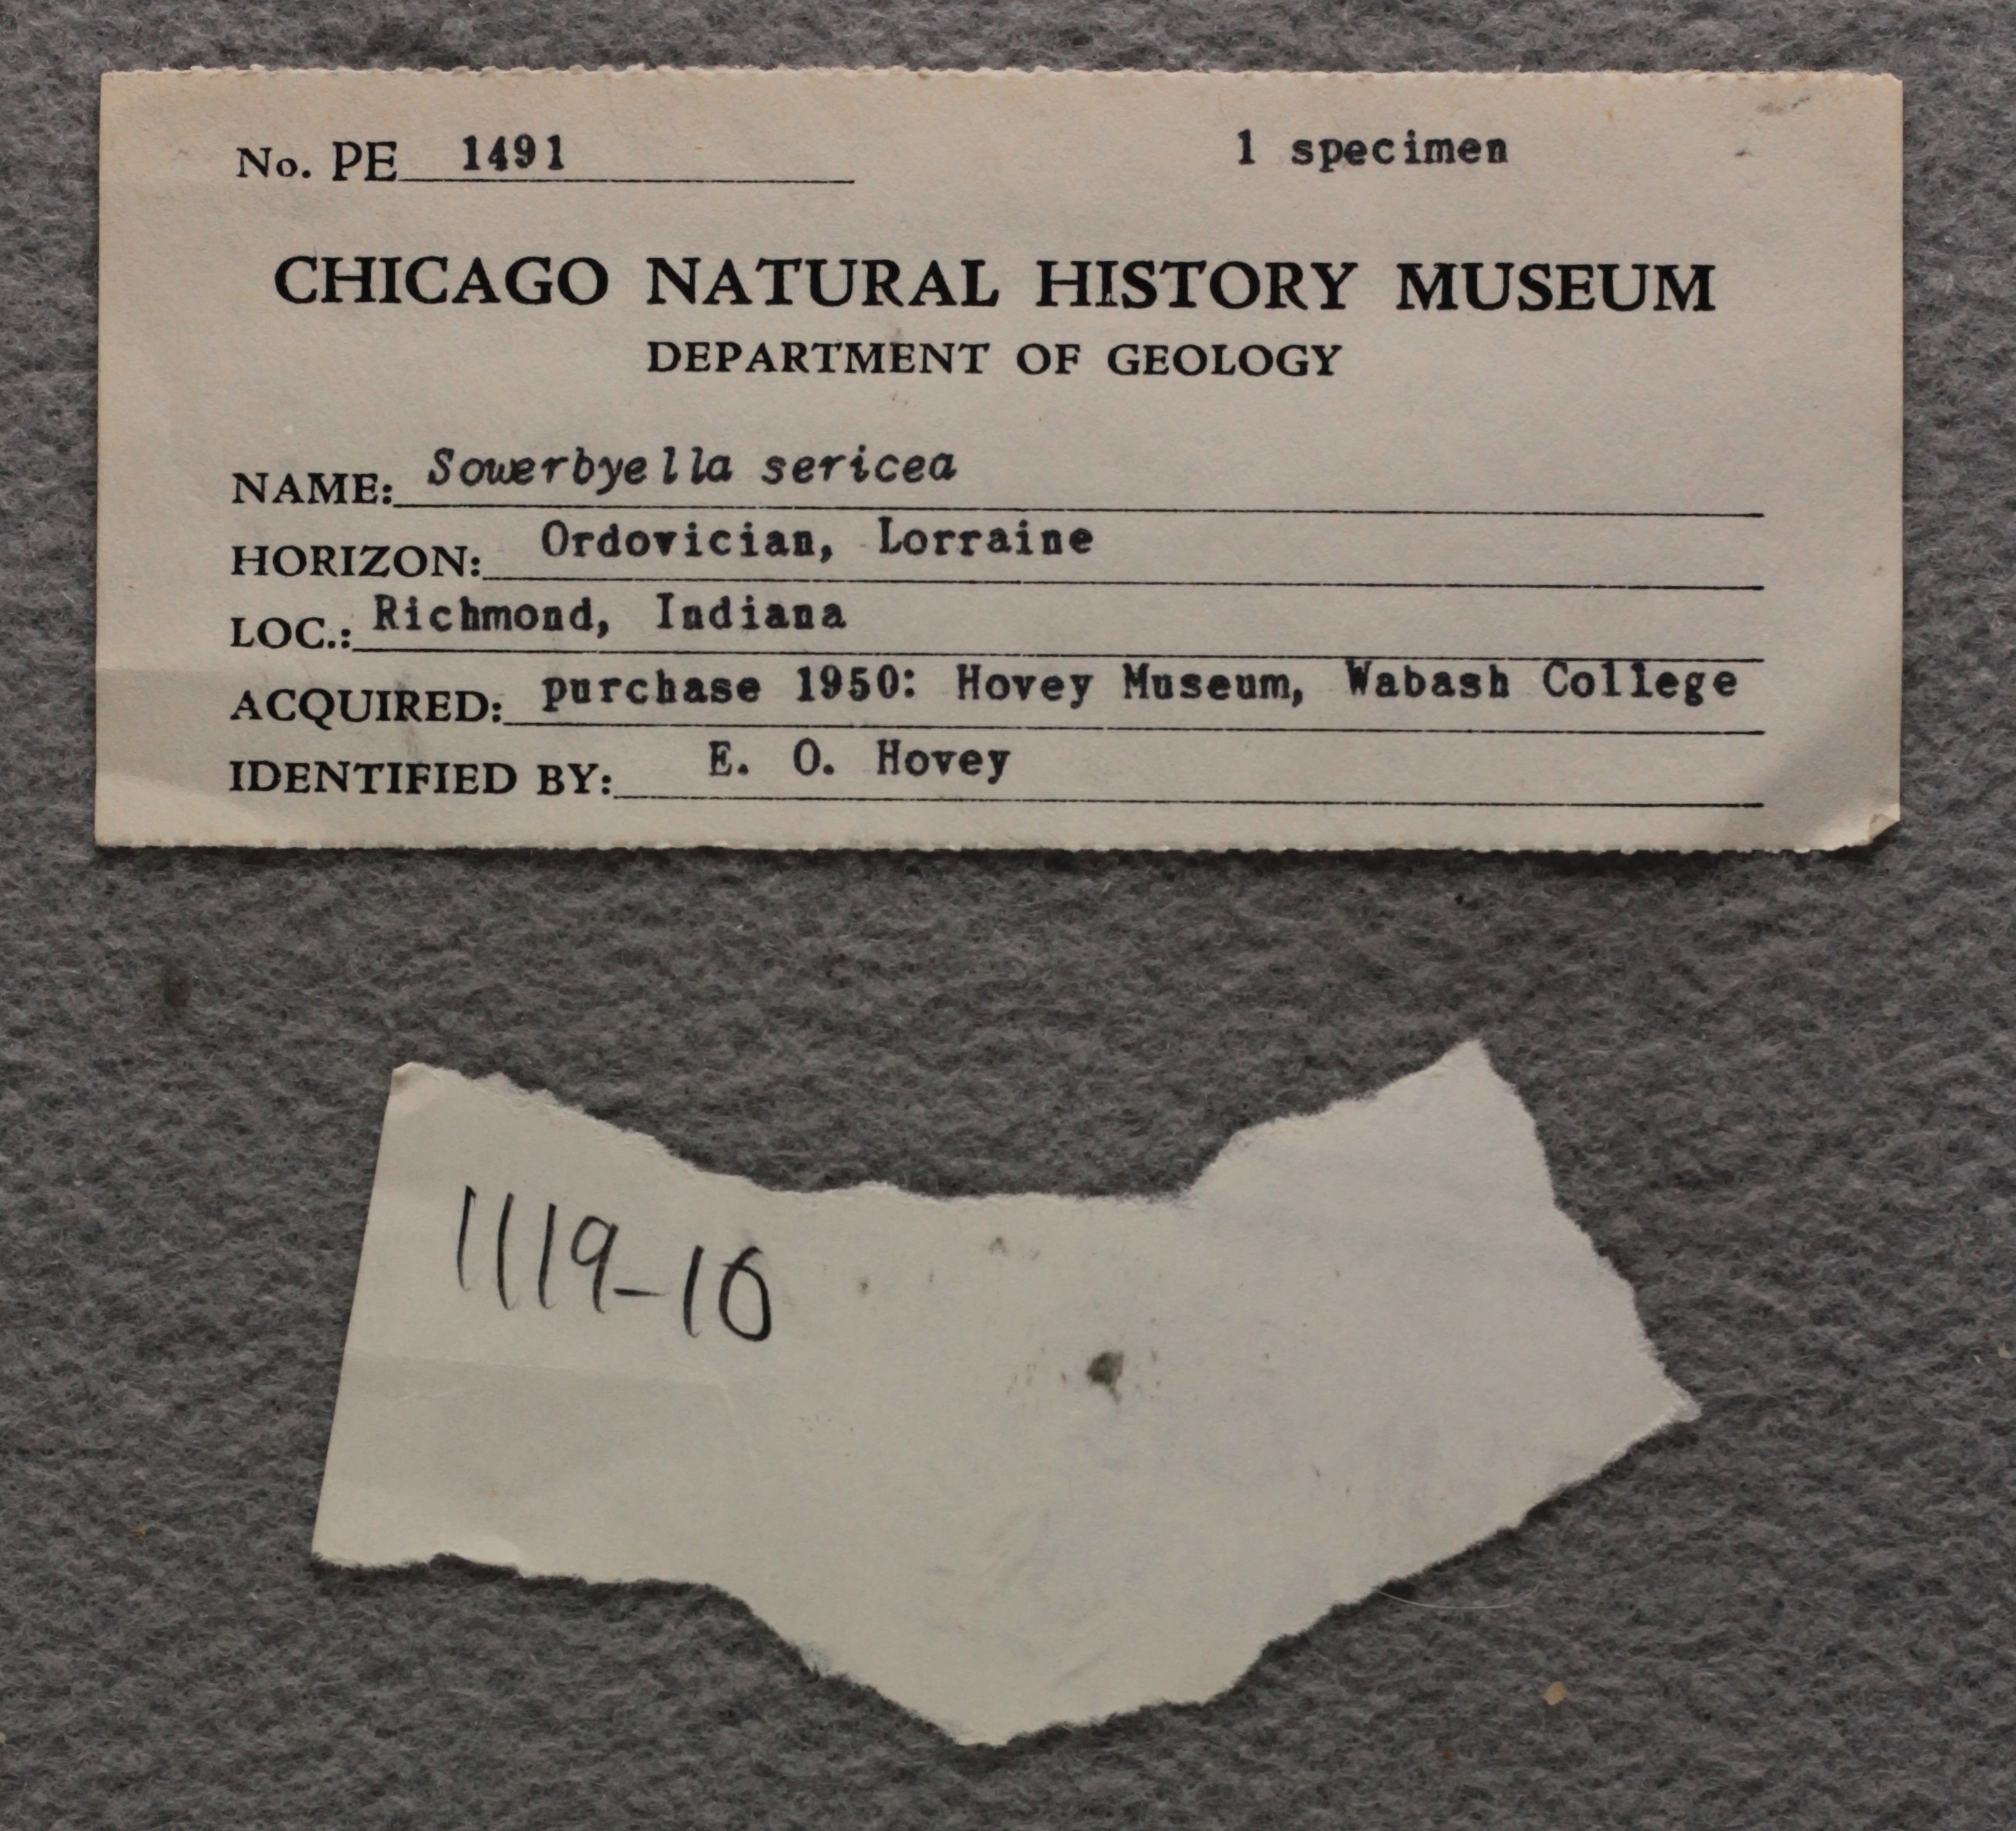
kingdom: Animalia
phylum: Brachiopoda
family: Sowerbyellidae
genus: Sowerbyella
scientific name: Sowerbyella Leptaena sericea
